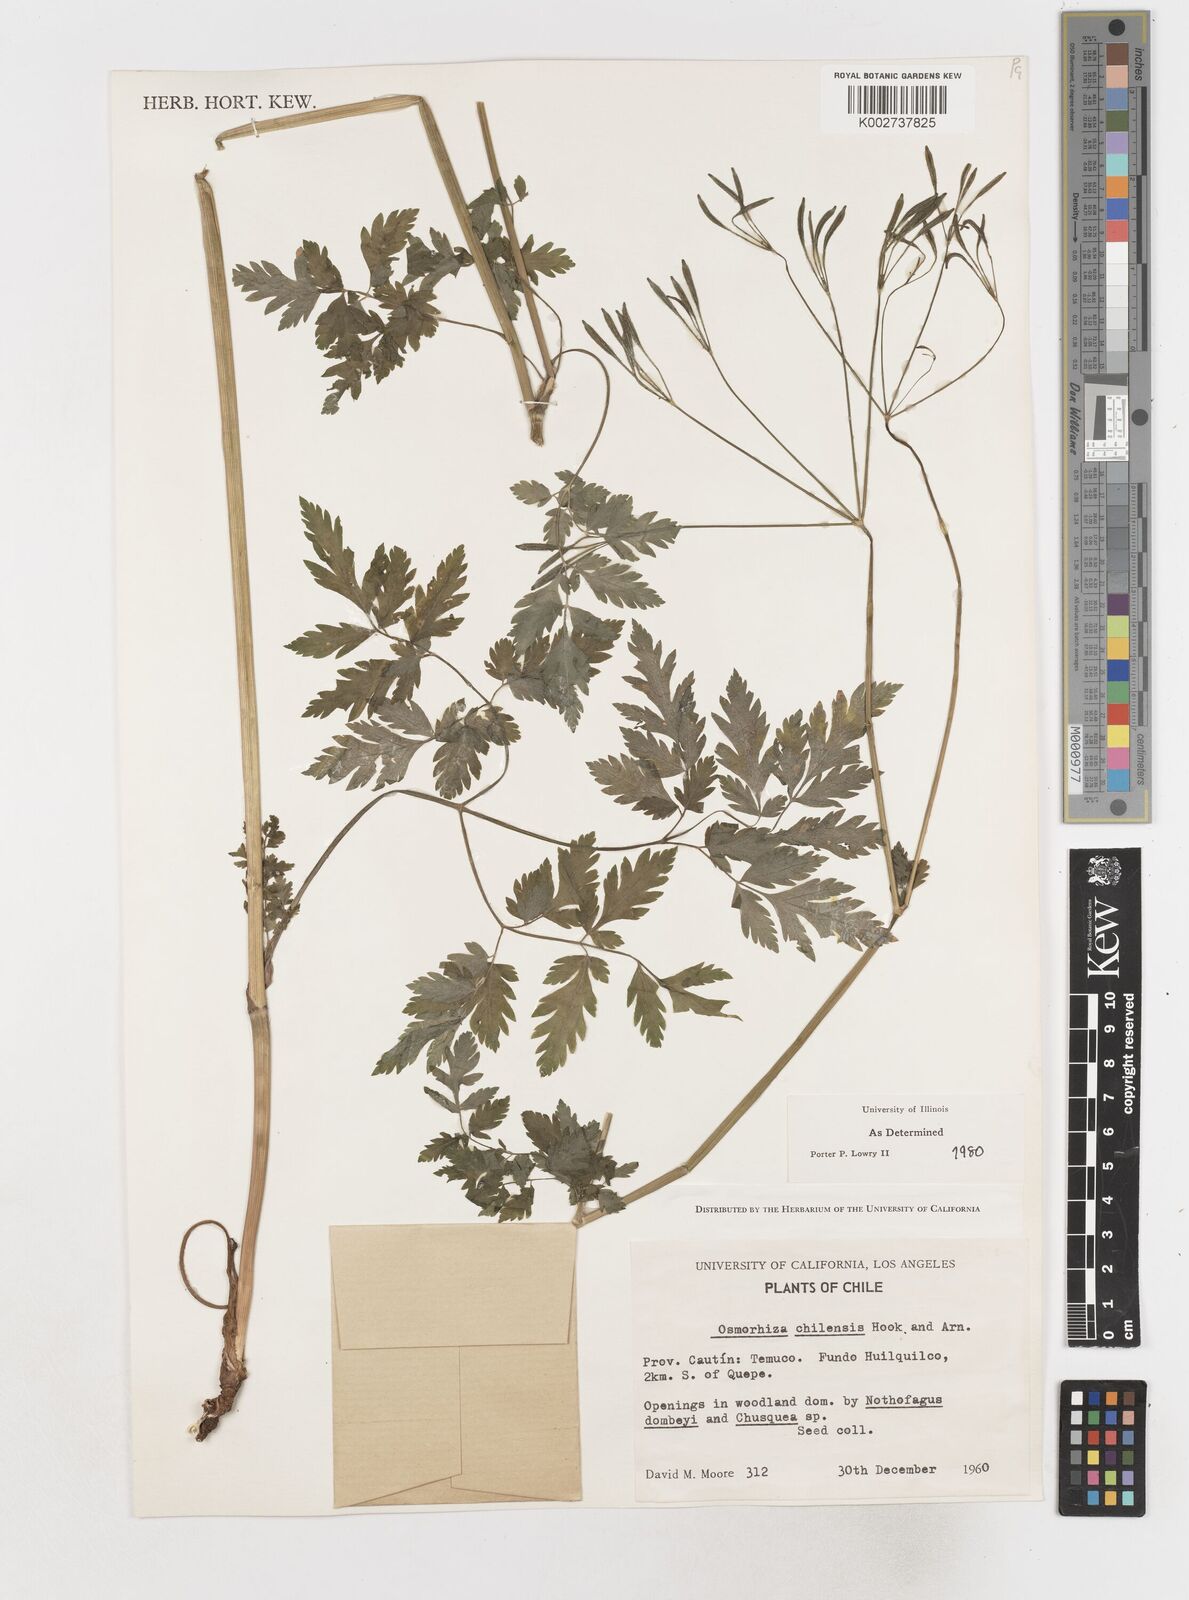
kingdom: Plantae
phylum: Tracheophyta
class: Magnoliopsida
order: Apiales
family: Apiaceae
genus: Osmorhiza
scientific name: Osmorhiza berteroi
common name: Mountain sweet cicely
